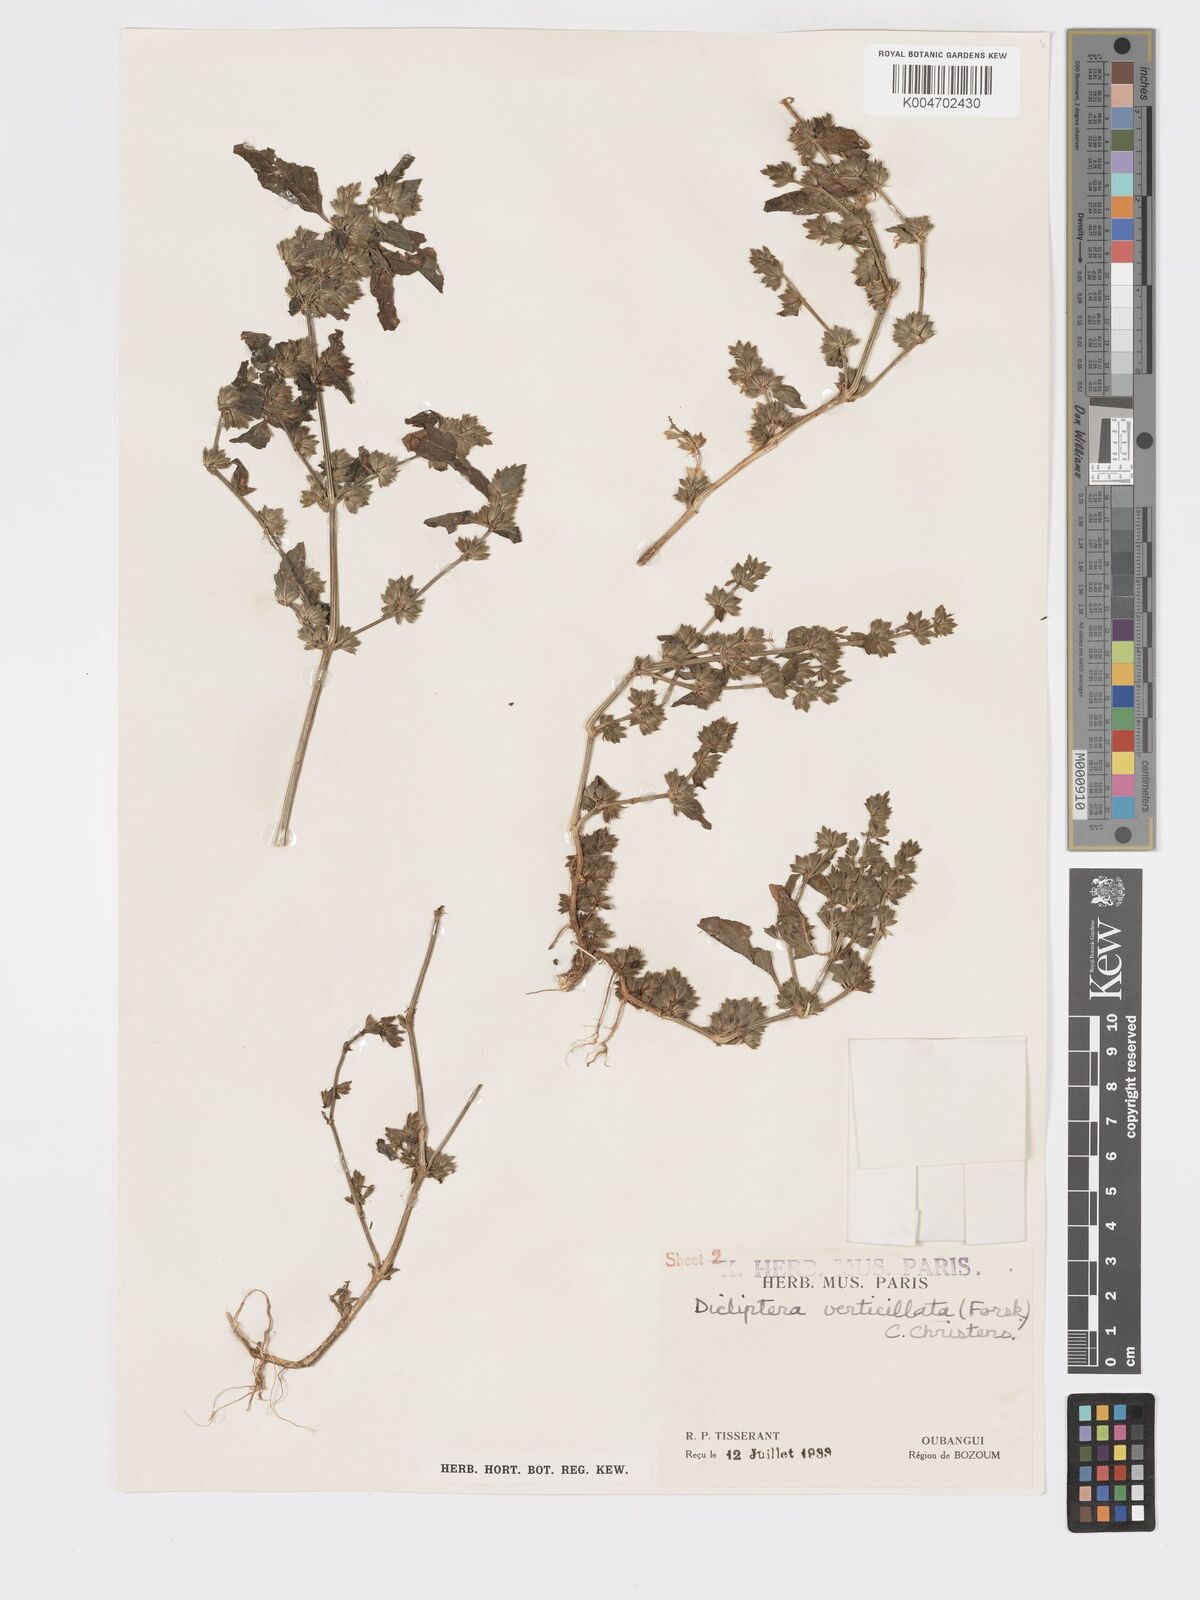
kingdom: Plantae
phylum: Tracheophyta
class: Magnoliopsida
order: Lamiales
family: Acanthaceae
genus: Dicliptera
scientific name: Dicliptera verticillata
